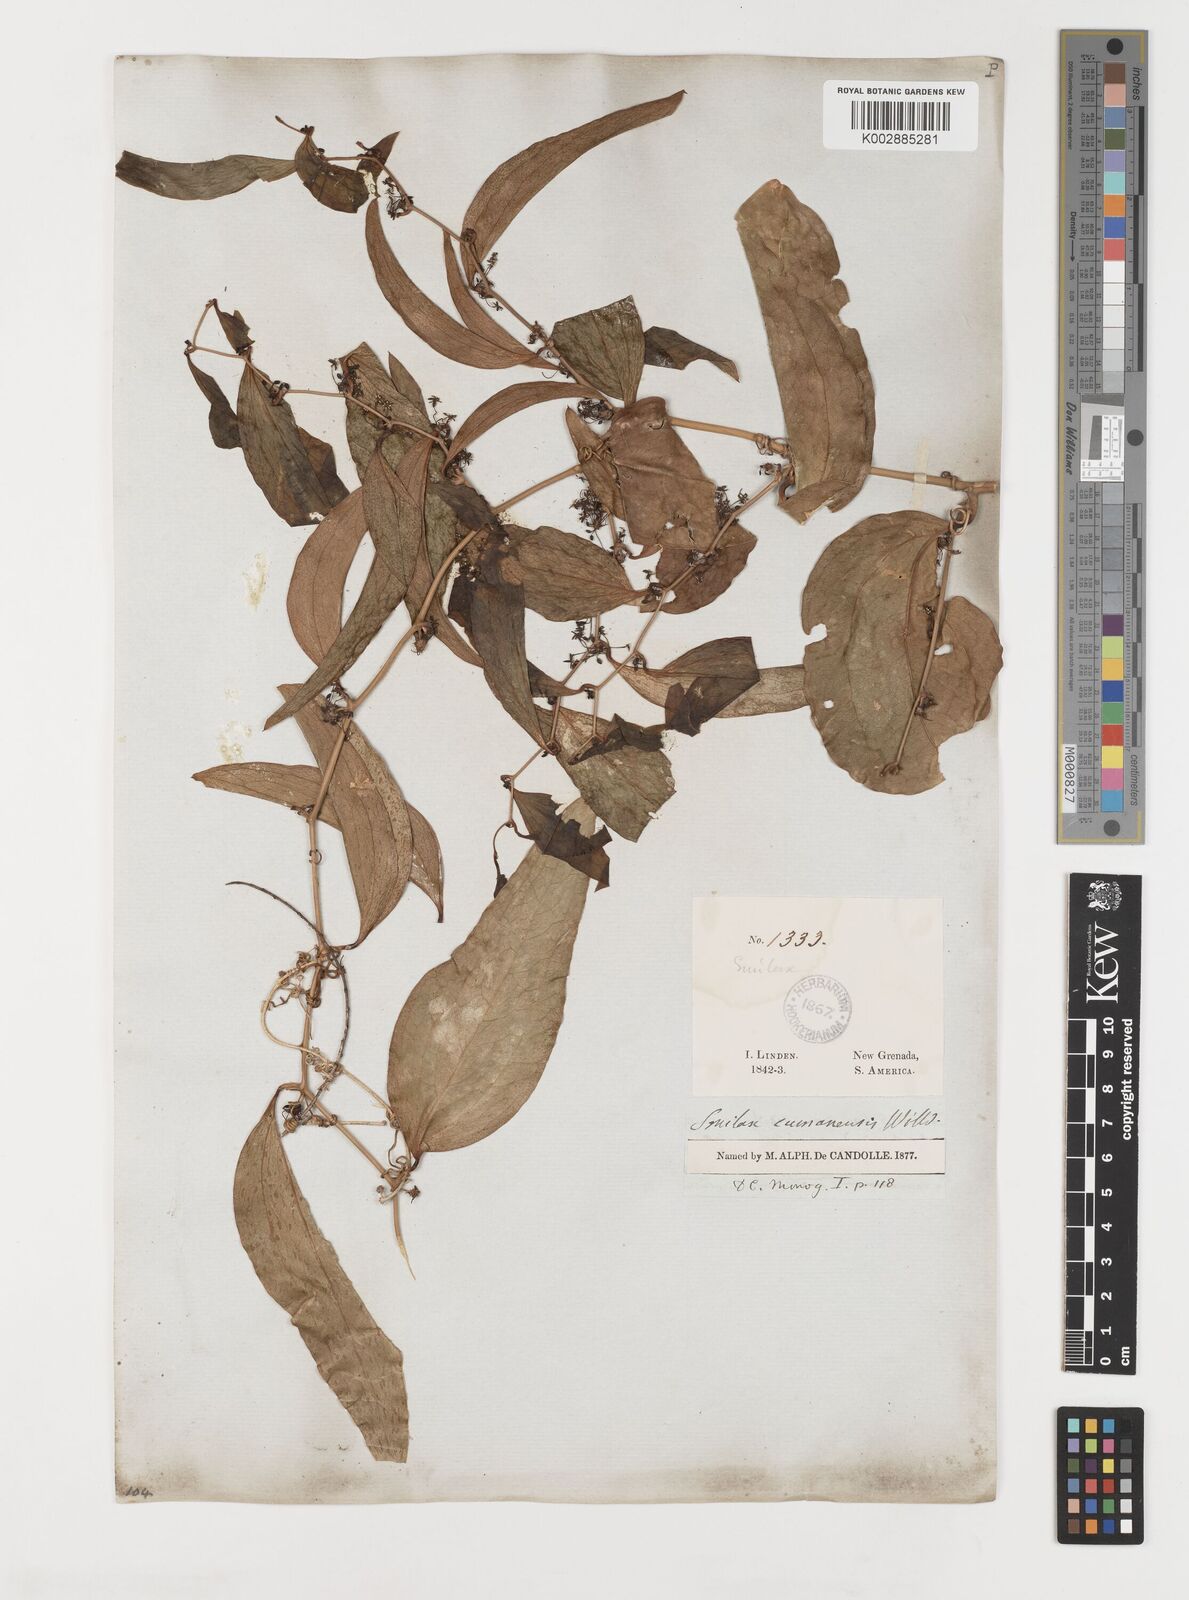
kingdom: Plantae
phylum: Tracheophyta
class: Liliopsida
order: Liliales
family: Smilacaceae
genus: Smilax
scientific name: Smilax oblongata
